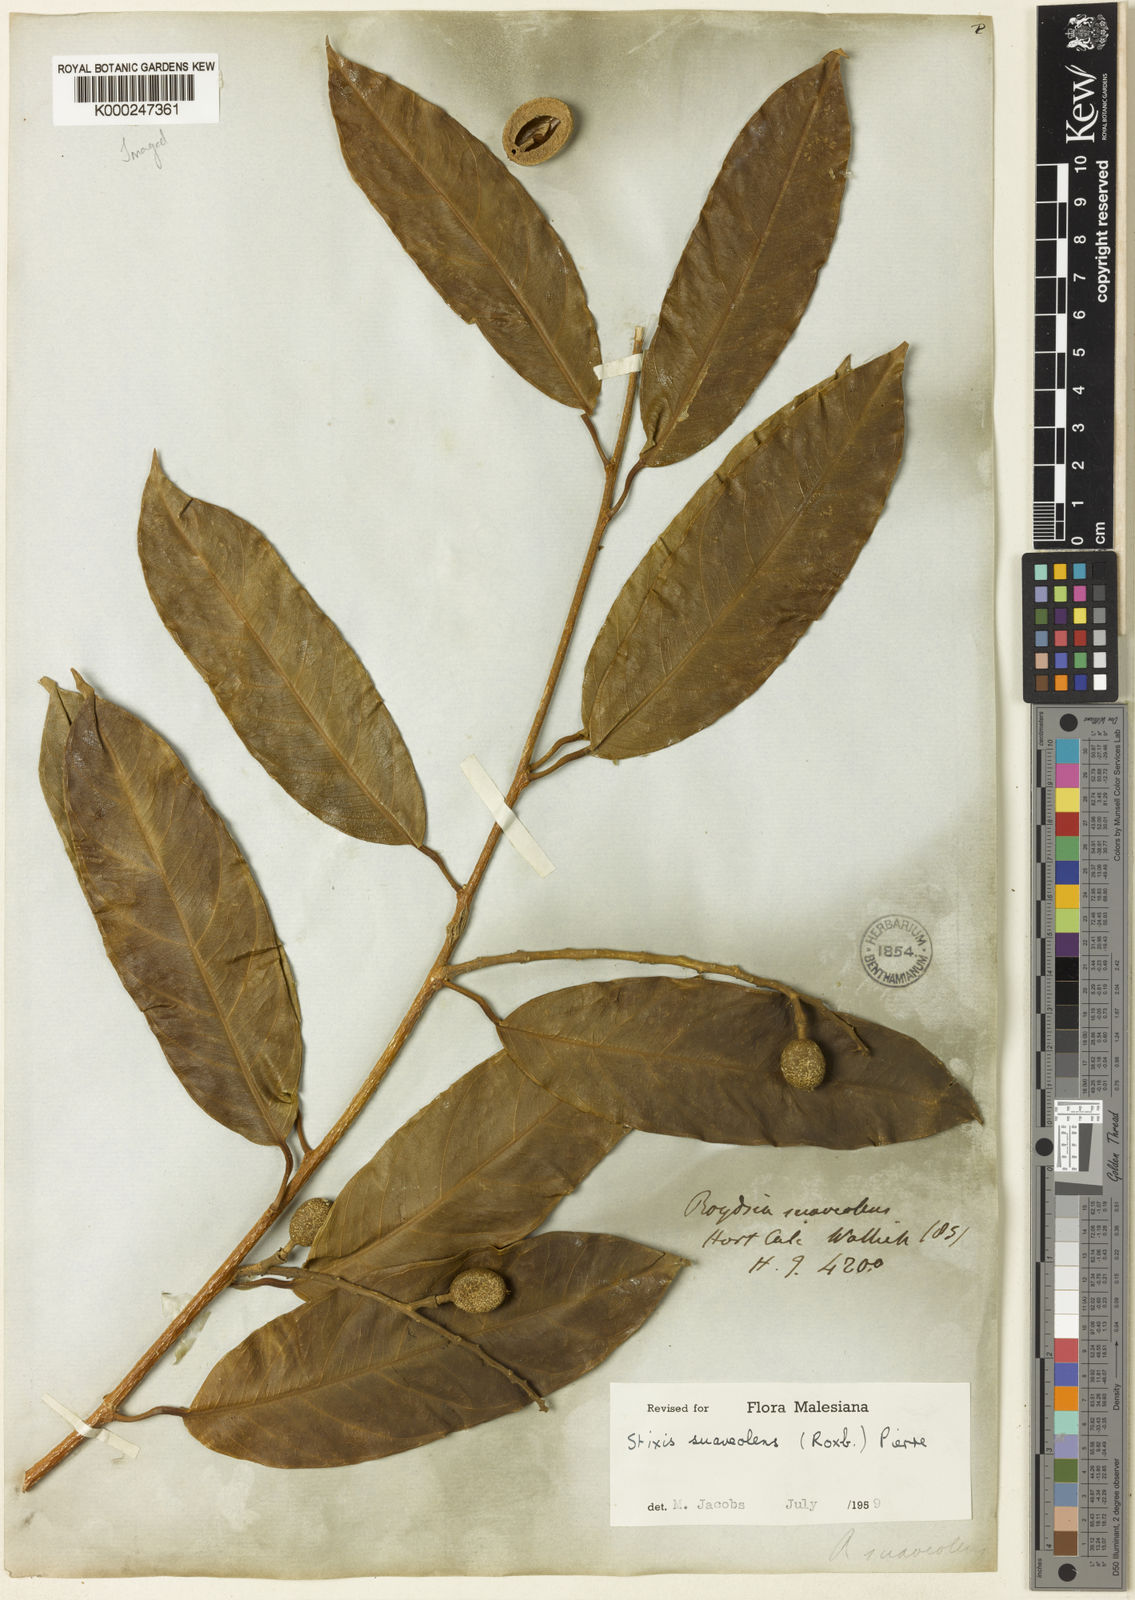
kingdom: Plantae
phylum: Tracheophyta
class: Magnoliopsida
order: Brassicales
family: Stixaceae
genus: Stixis
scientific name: Stixis
